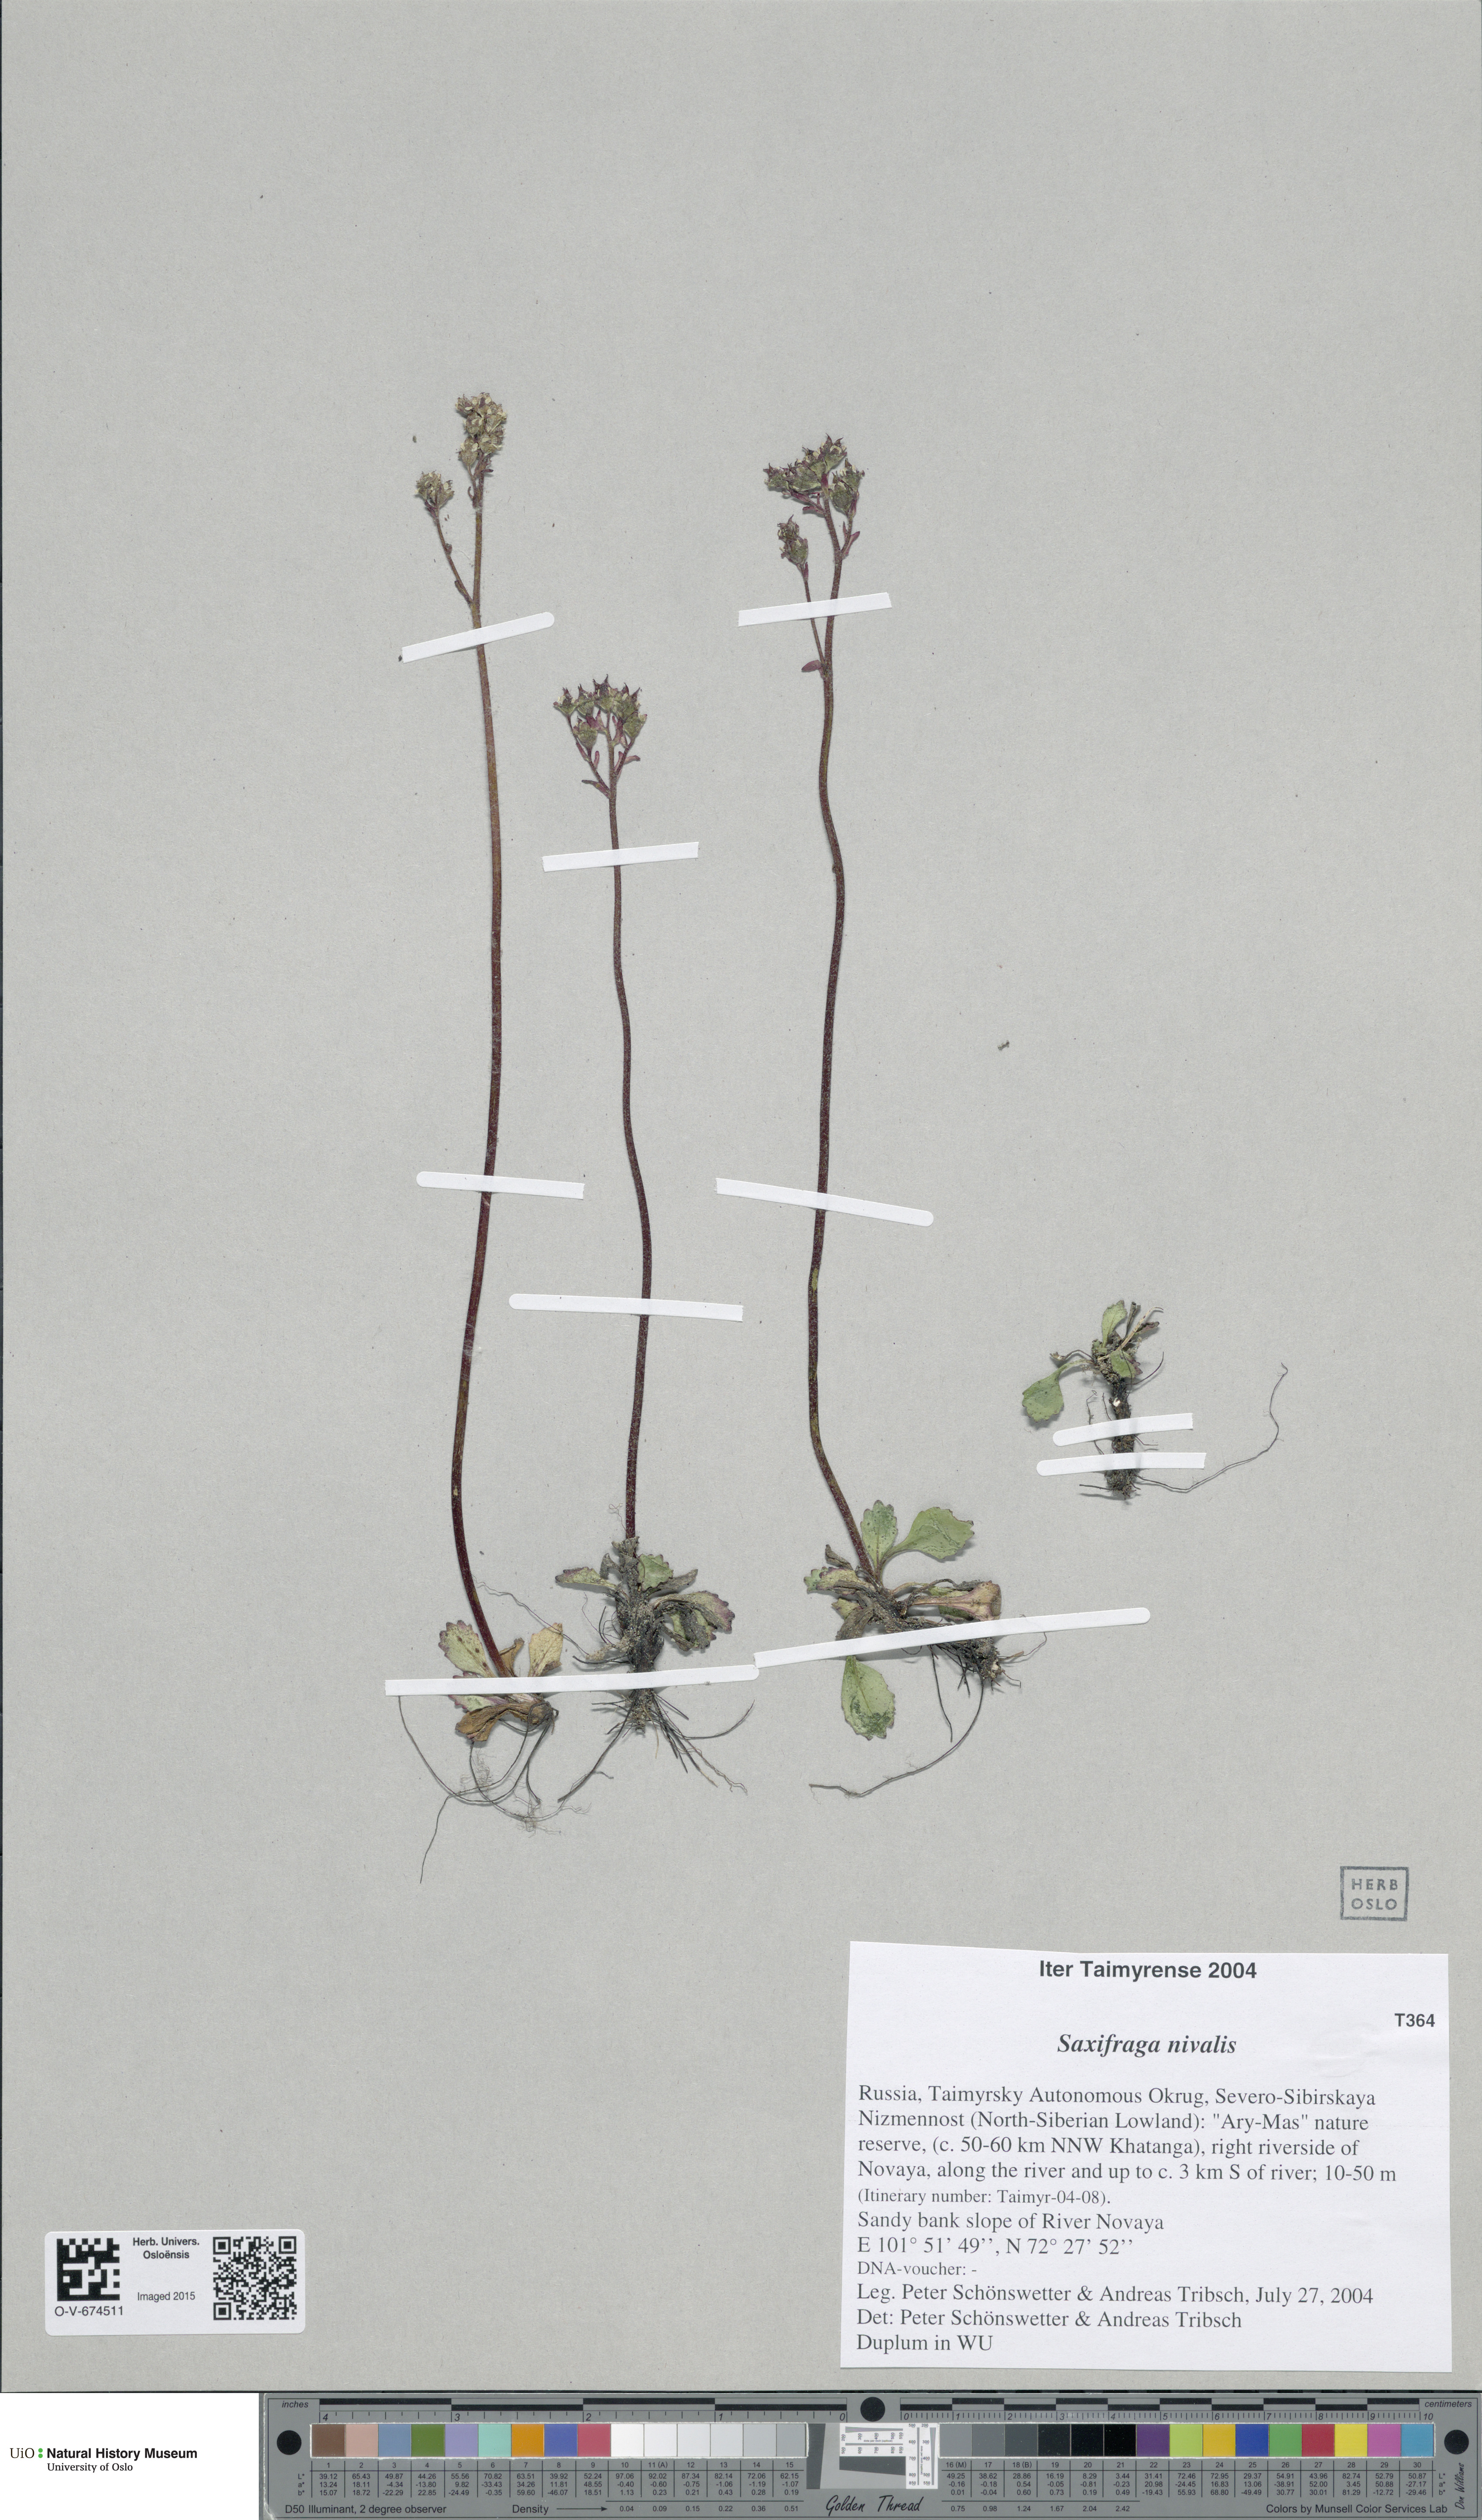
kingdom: Plantae
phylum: Tracheophyta
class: Magnoliopsida
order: Saxifragales
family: Saxifragaceae
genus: Micranthes
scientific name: Micranthes nivalis
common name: Alpine saxifrage
